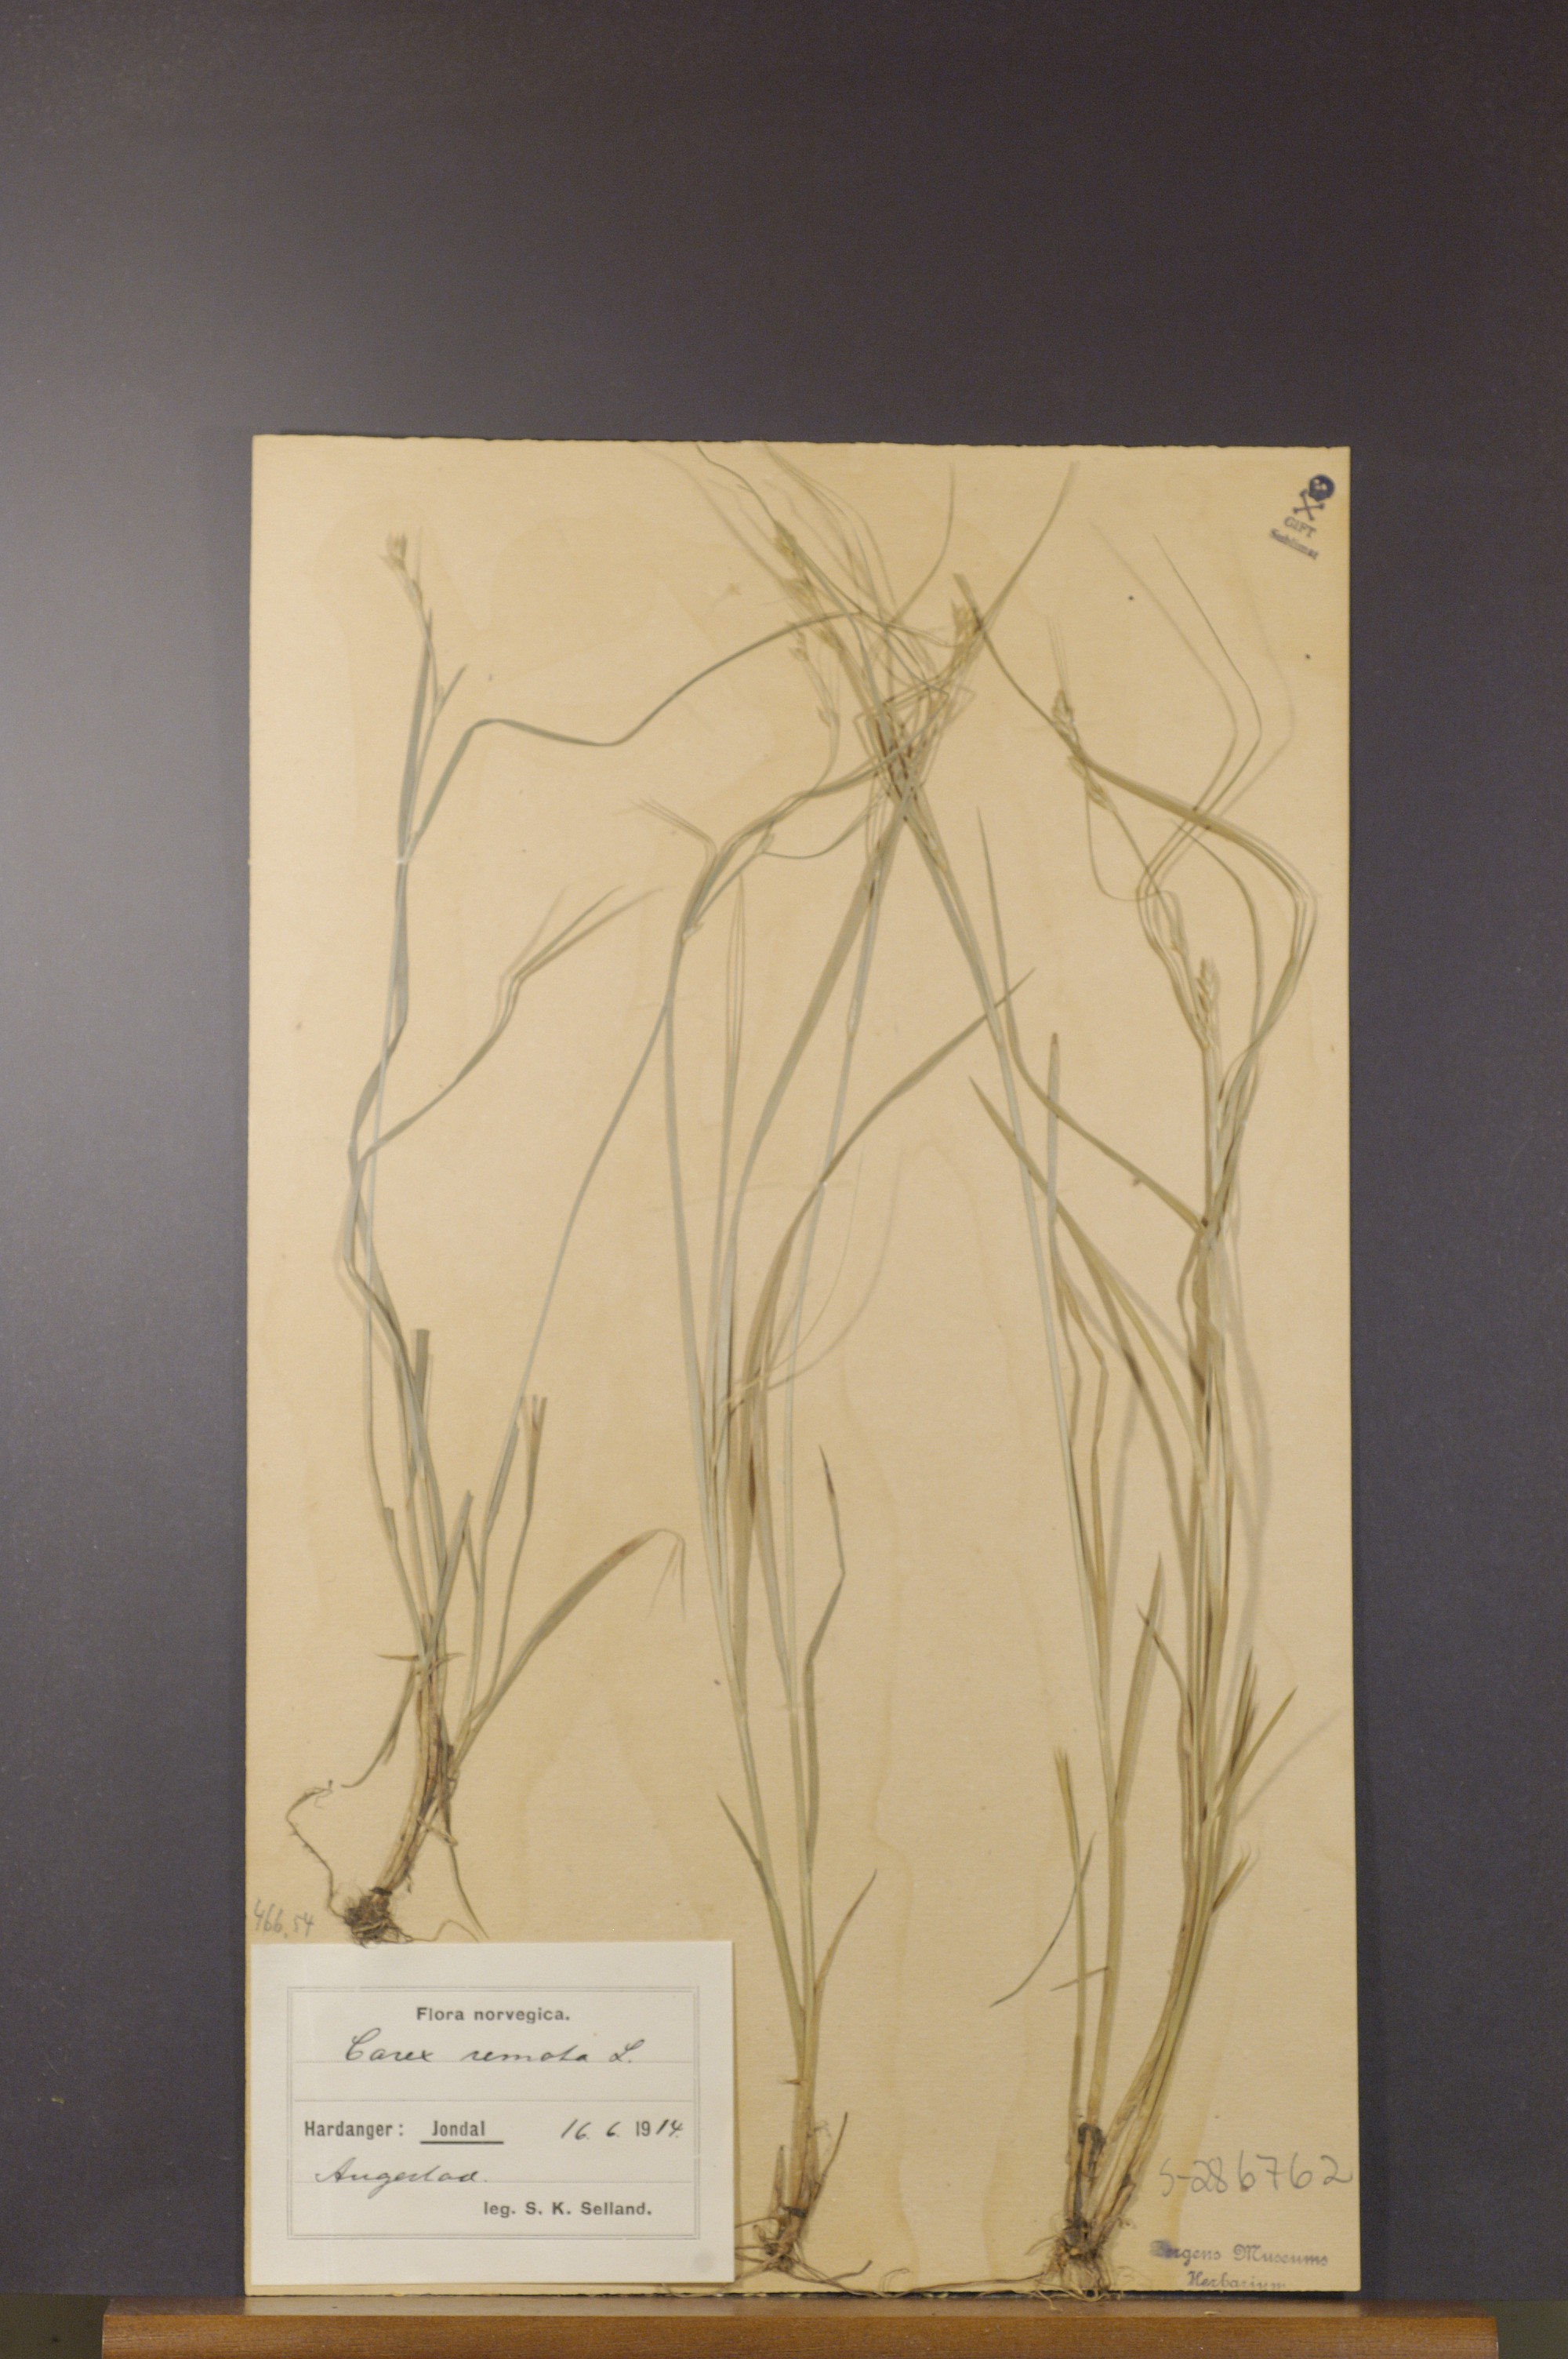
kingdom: Plantae
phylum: Tracheophyta
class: Liliopsida
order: Poales
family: Cyperaceae
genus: Carex
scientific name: Carex remota
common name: Remote sedge
